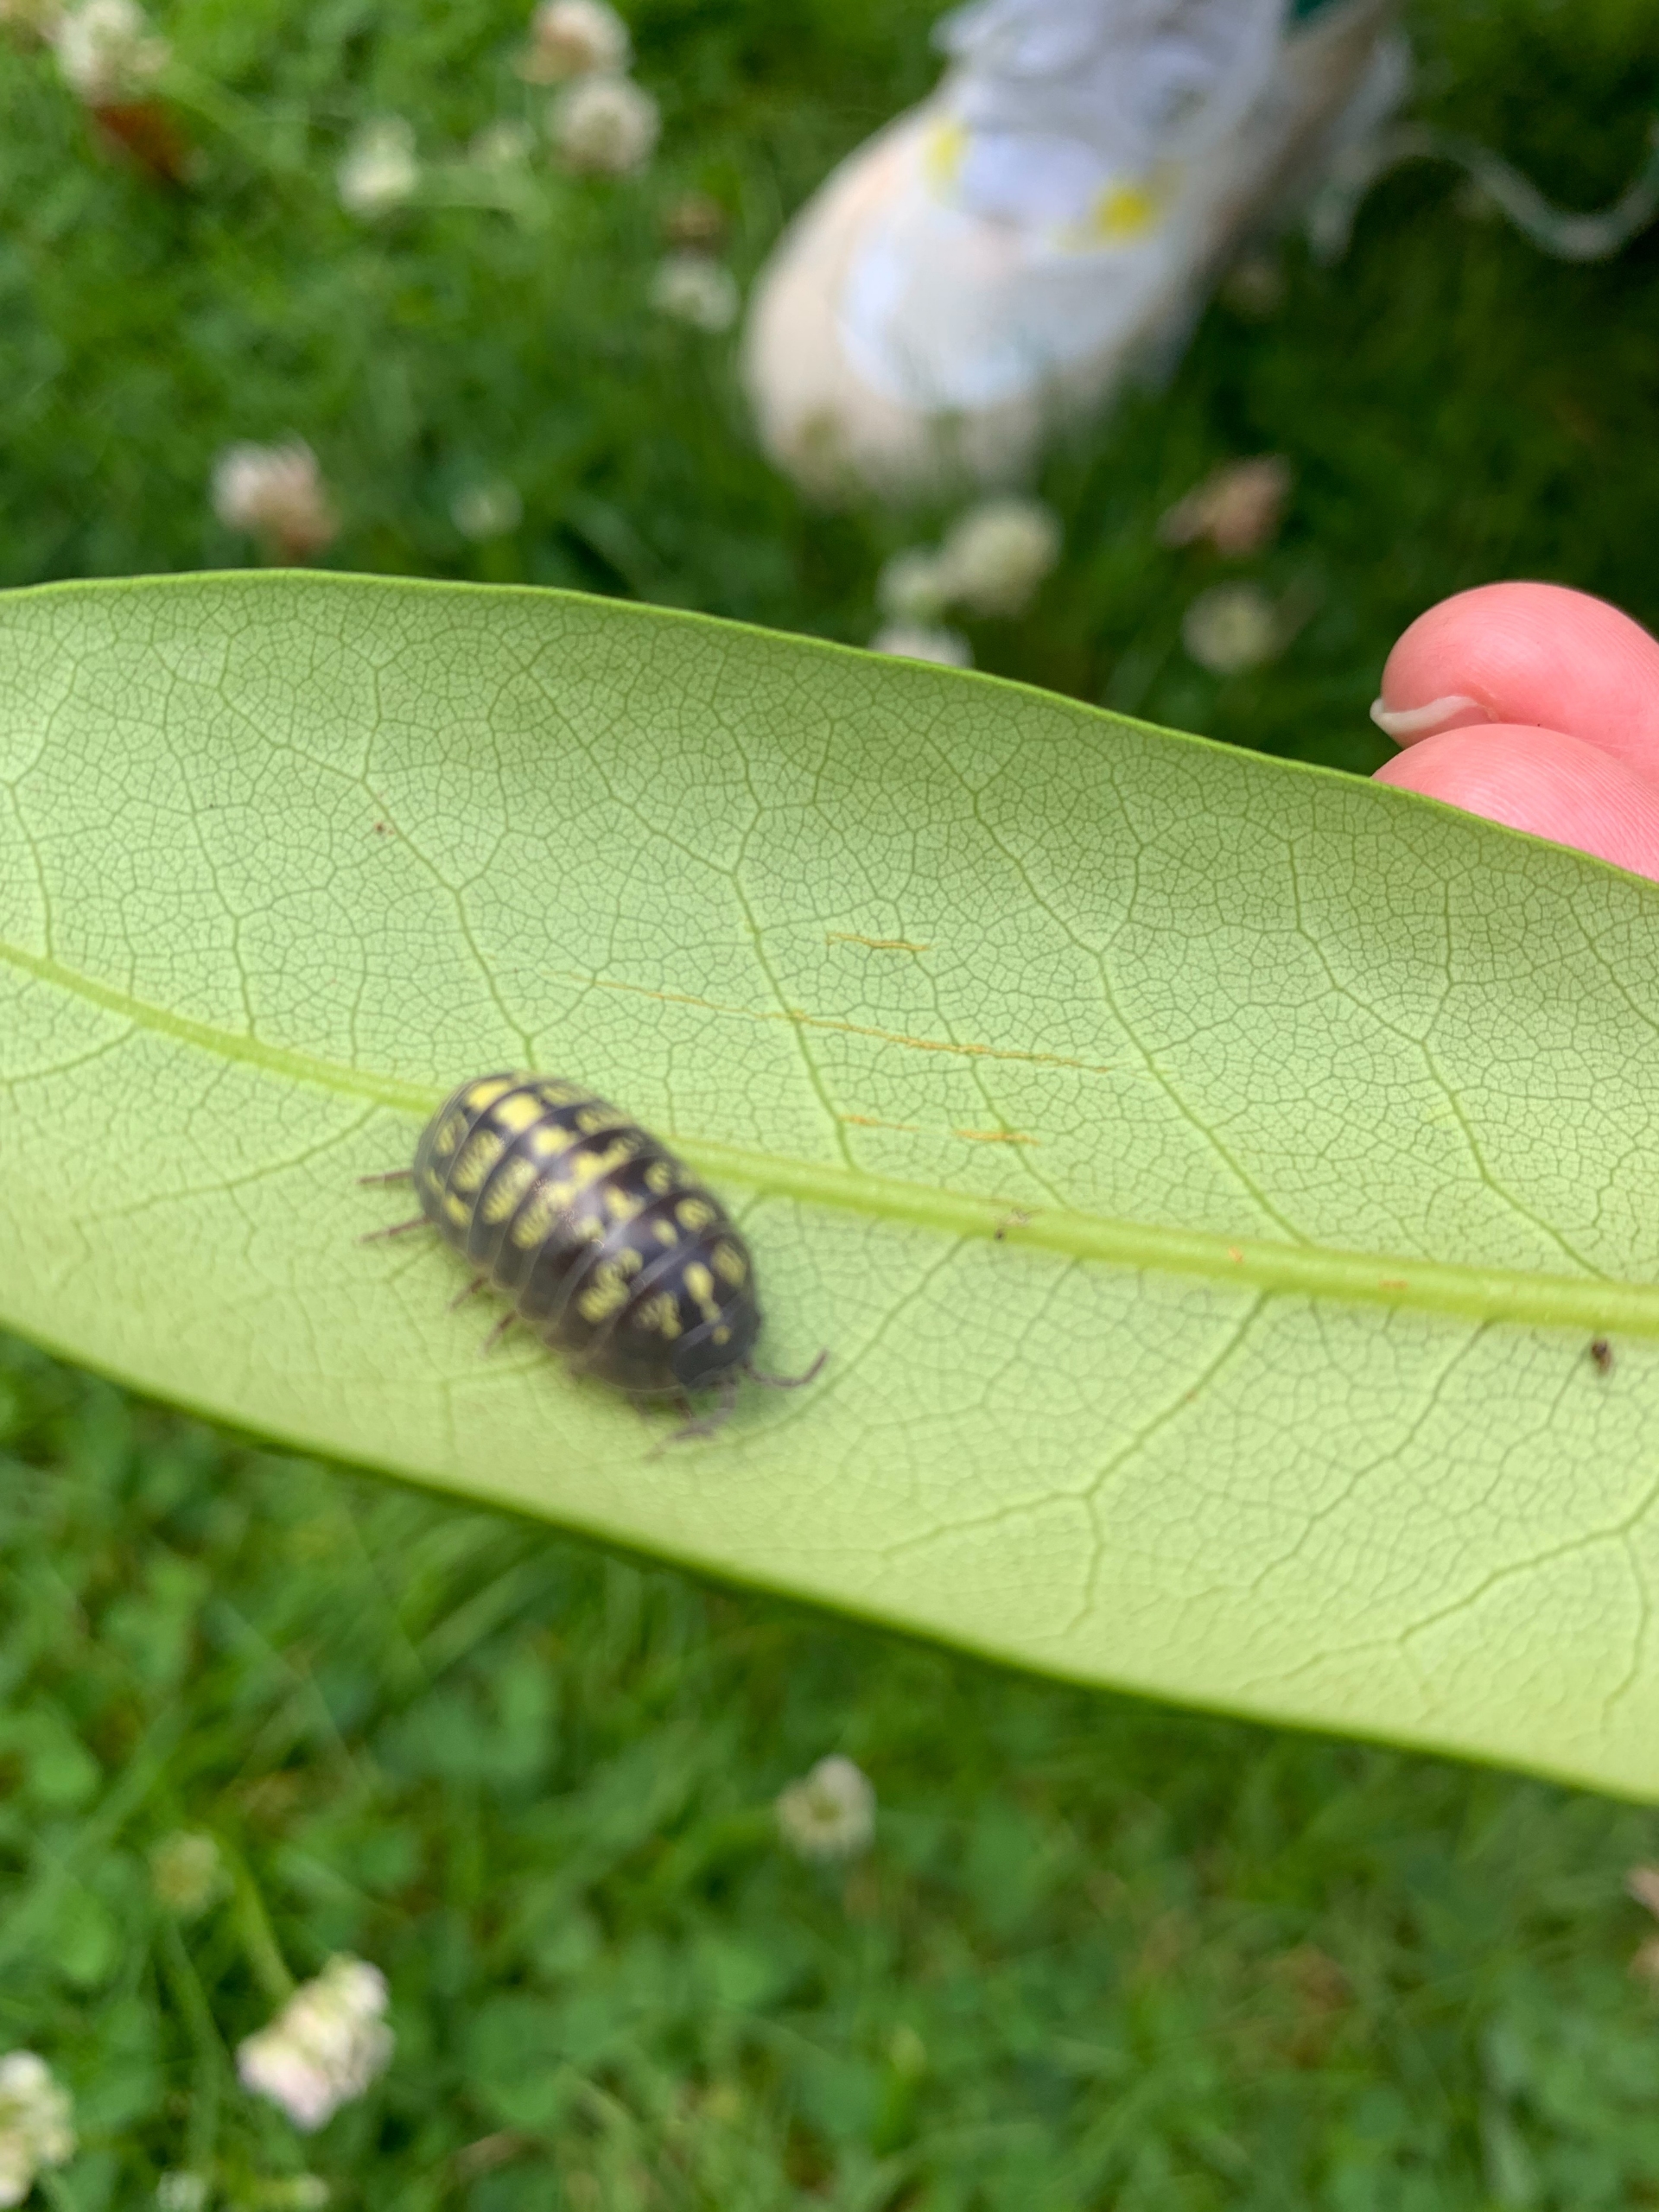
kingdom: Animalia
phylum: Arthropoda
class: Malacostraca
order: Isopoda
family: Armadillidiidae
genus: Armadillidium
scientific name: Armadillidium vulgare
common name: Almindelig kuglebænkebider
